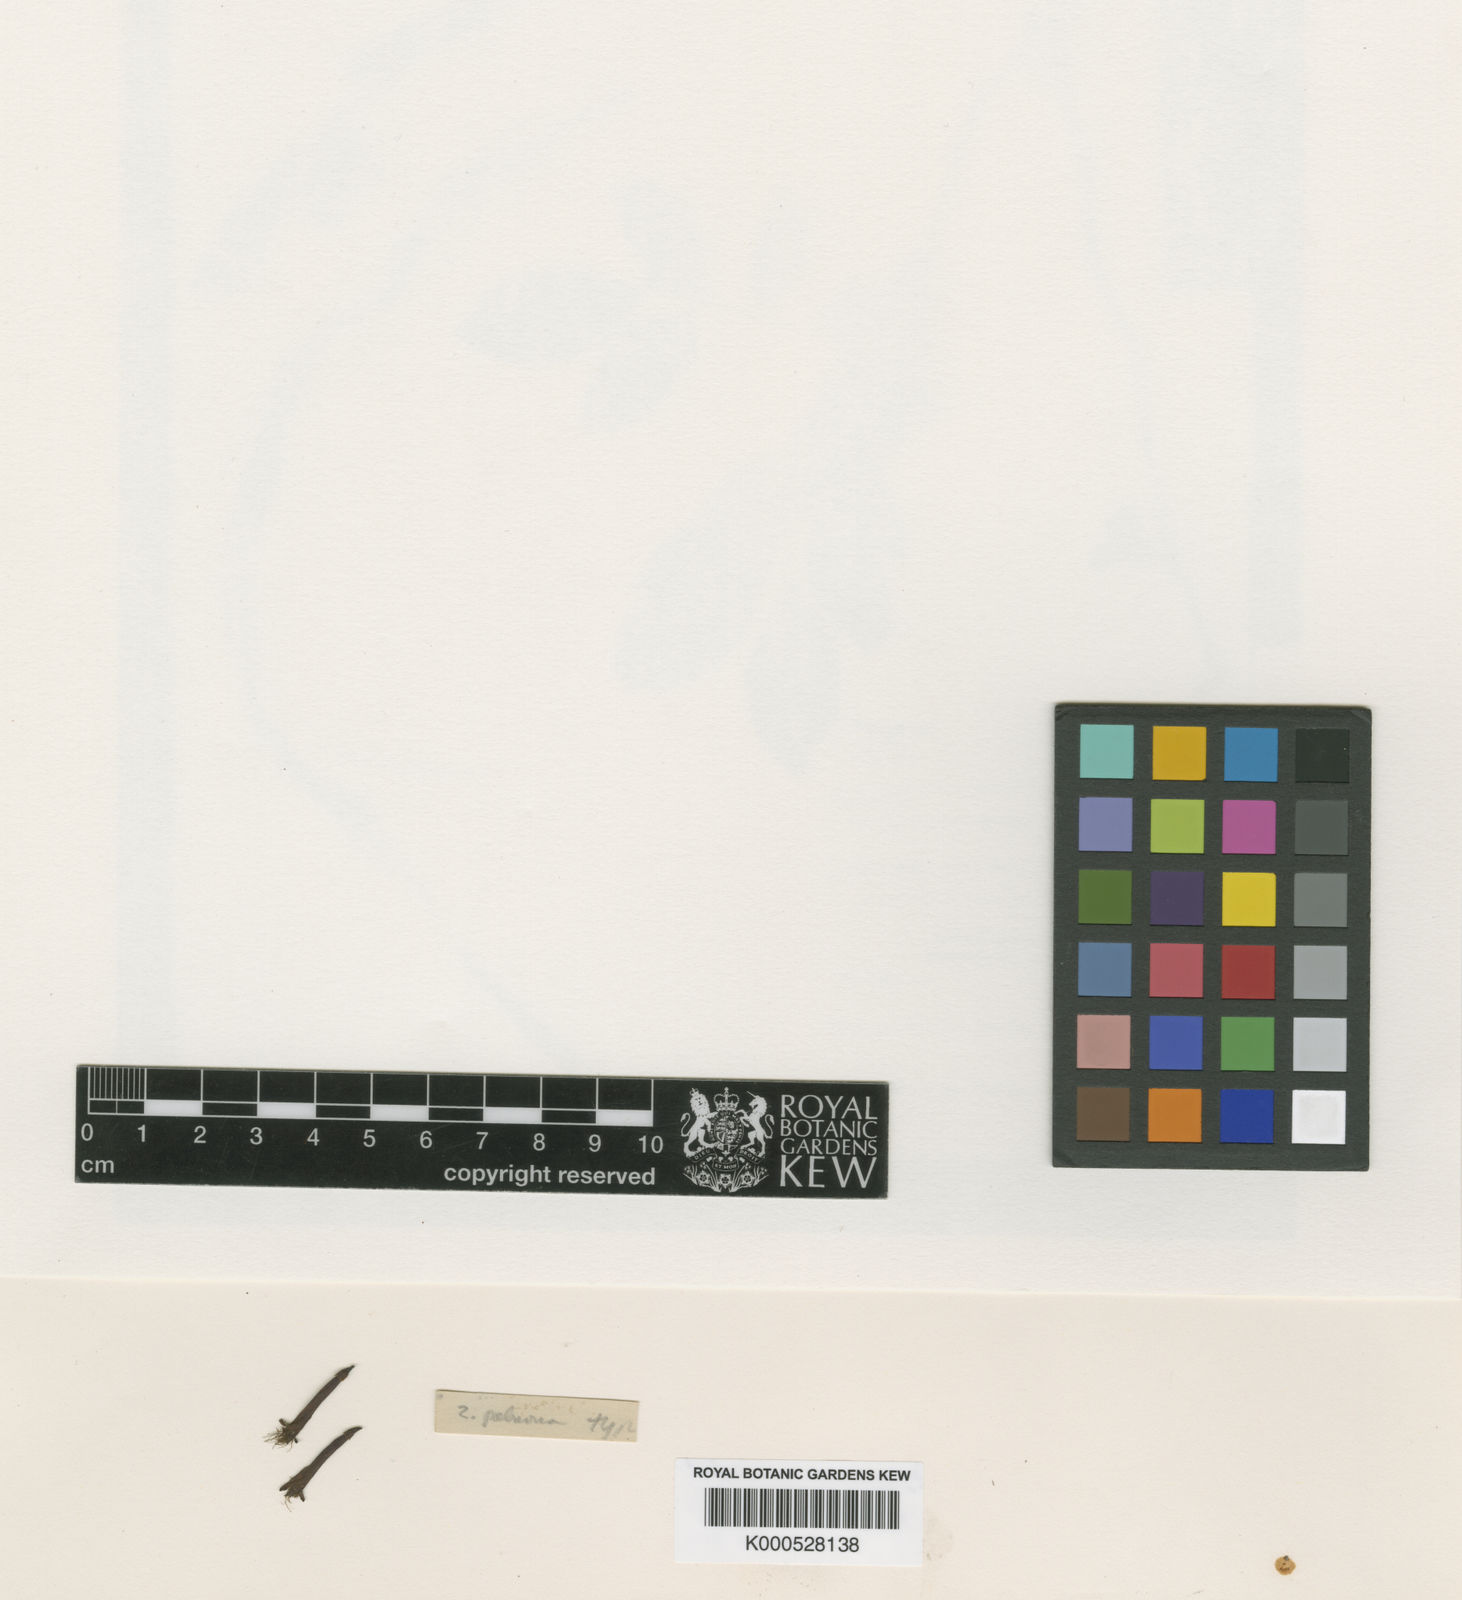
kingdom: Plantae
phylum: Tracheophyta
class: Magnoliopsida
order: Fabales
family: Fabaceae
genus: Zygia
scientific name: Zygia palmana
